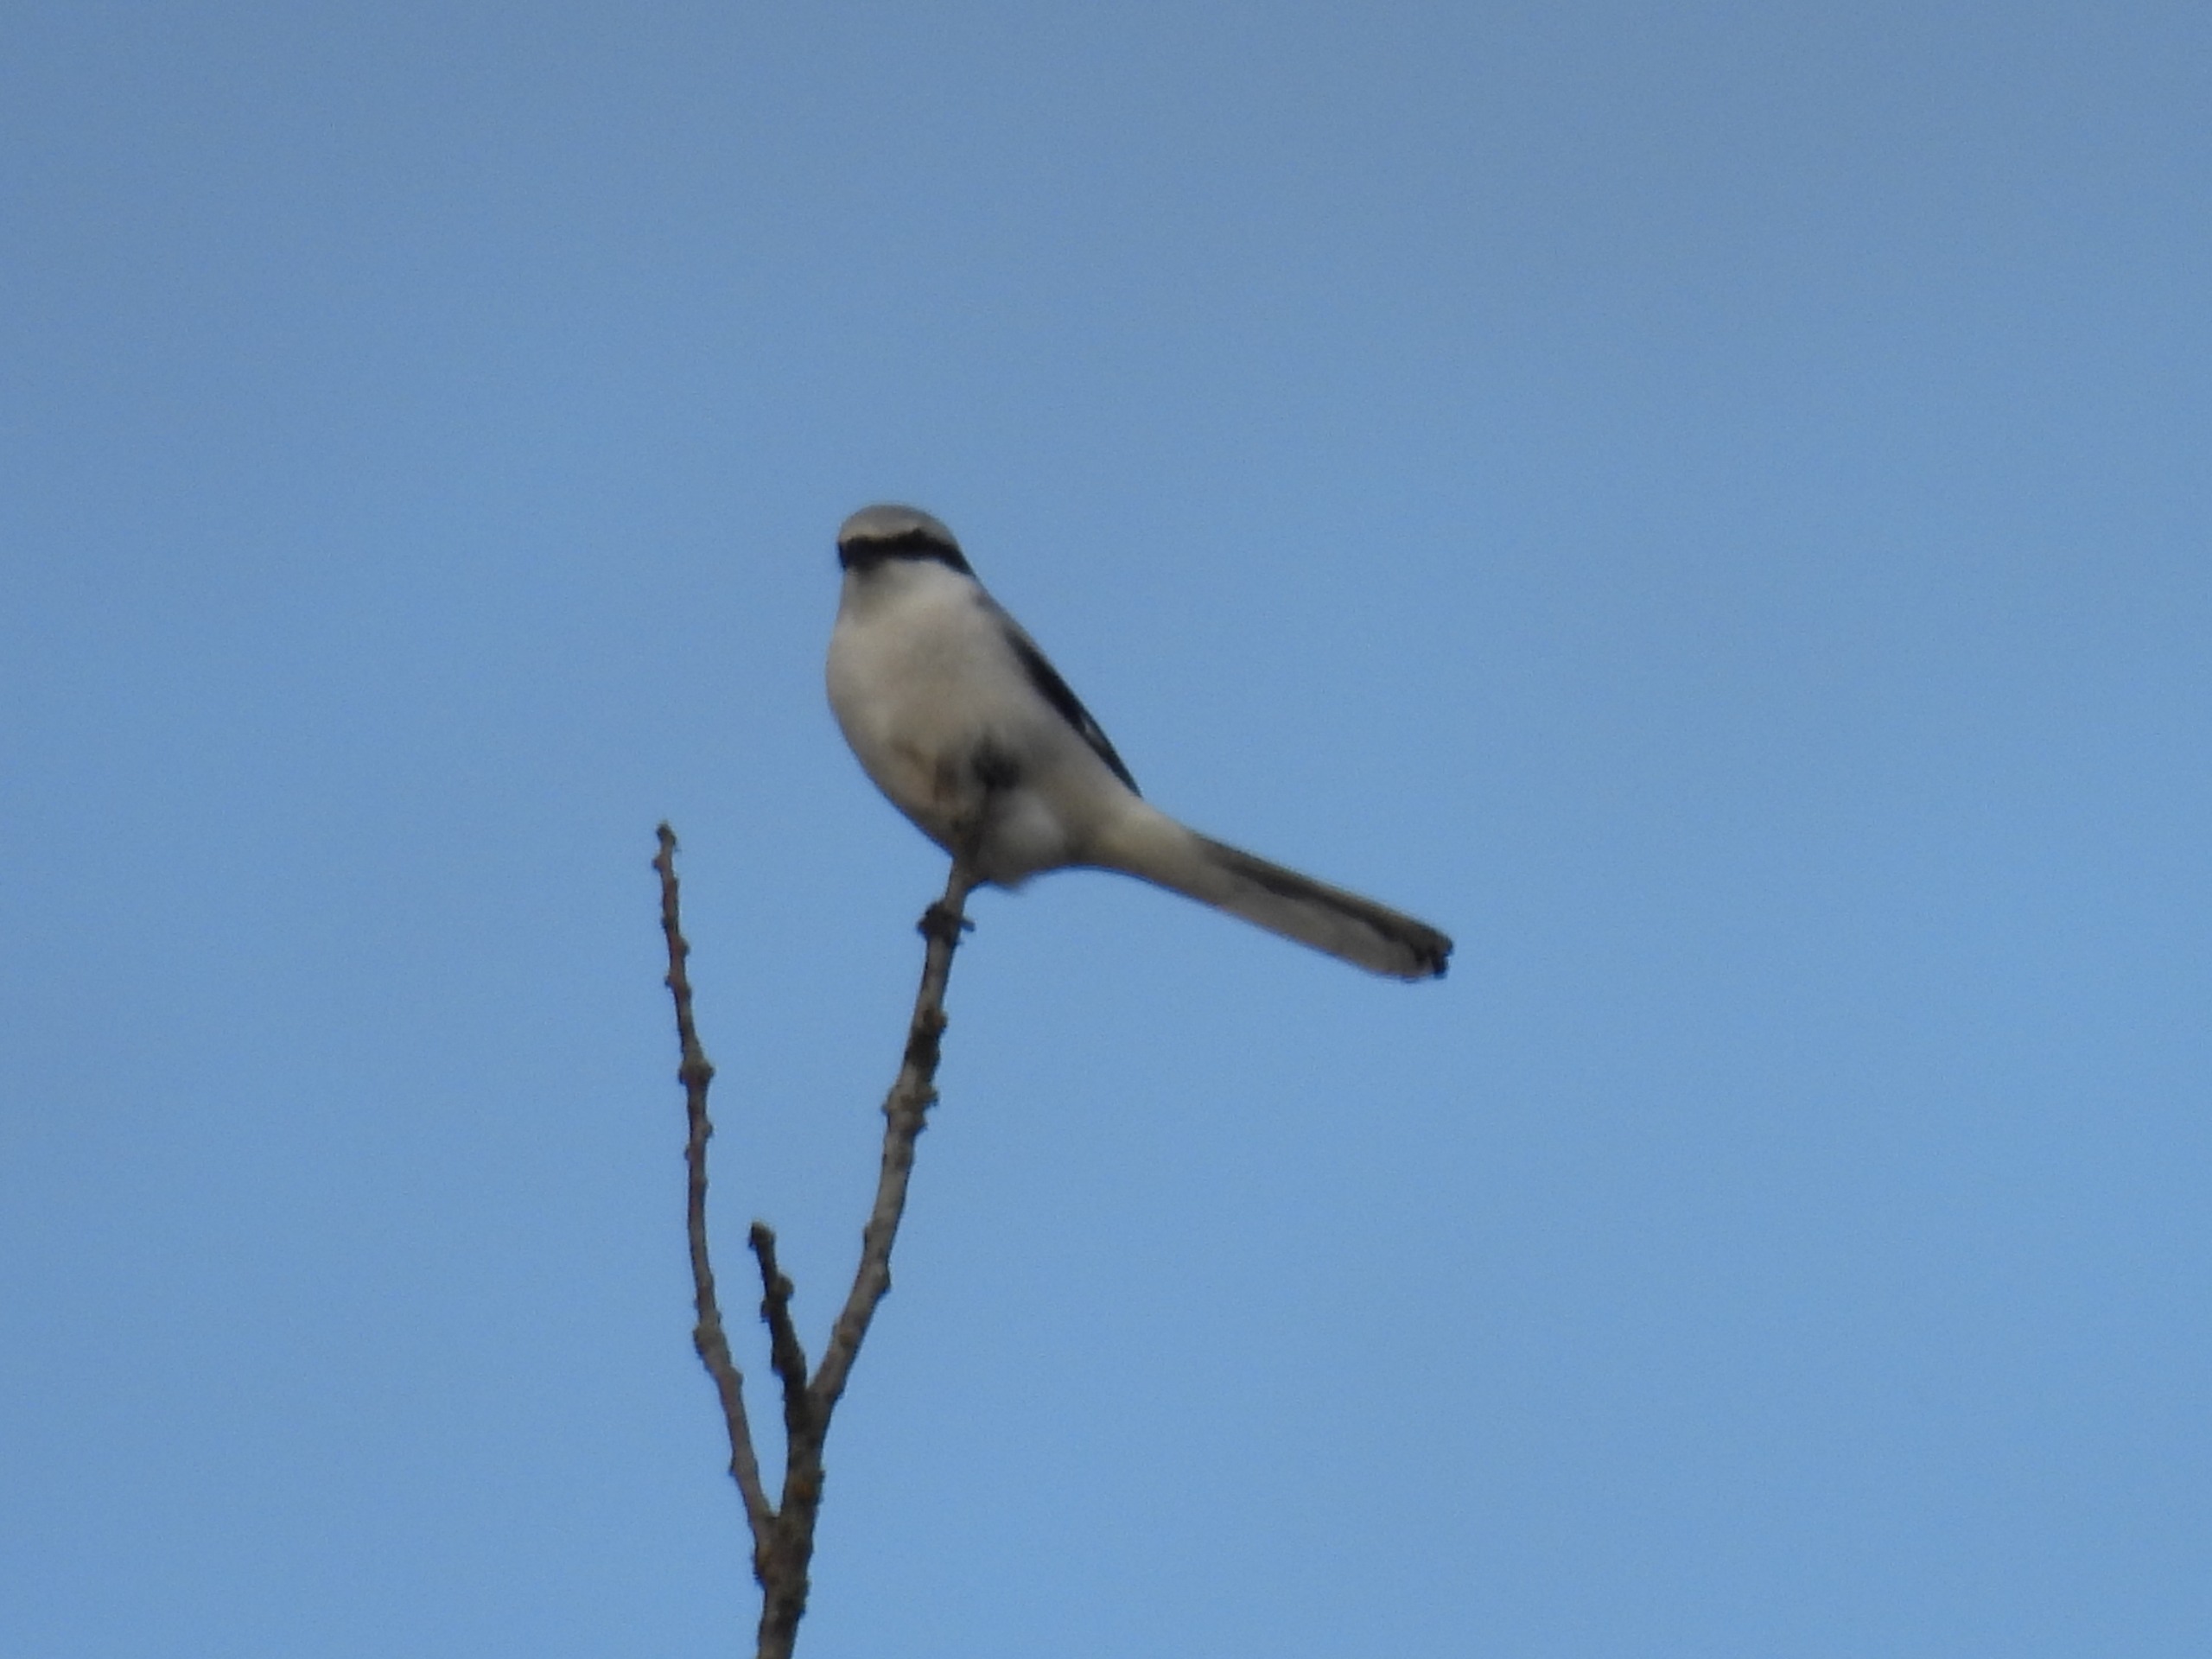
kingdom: Animalia
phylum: Chordata
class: Aves
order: Passeriformes
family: Laniidae
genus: Lanius
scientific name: Lanius excubitor
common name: Stor tornskade
